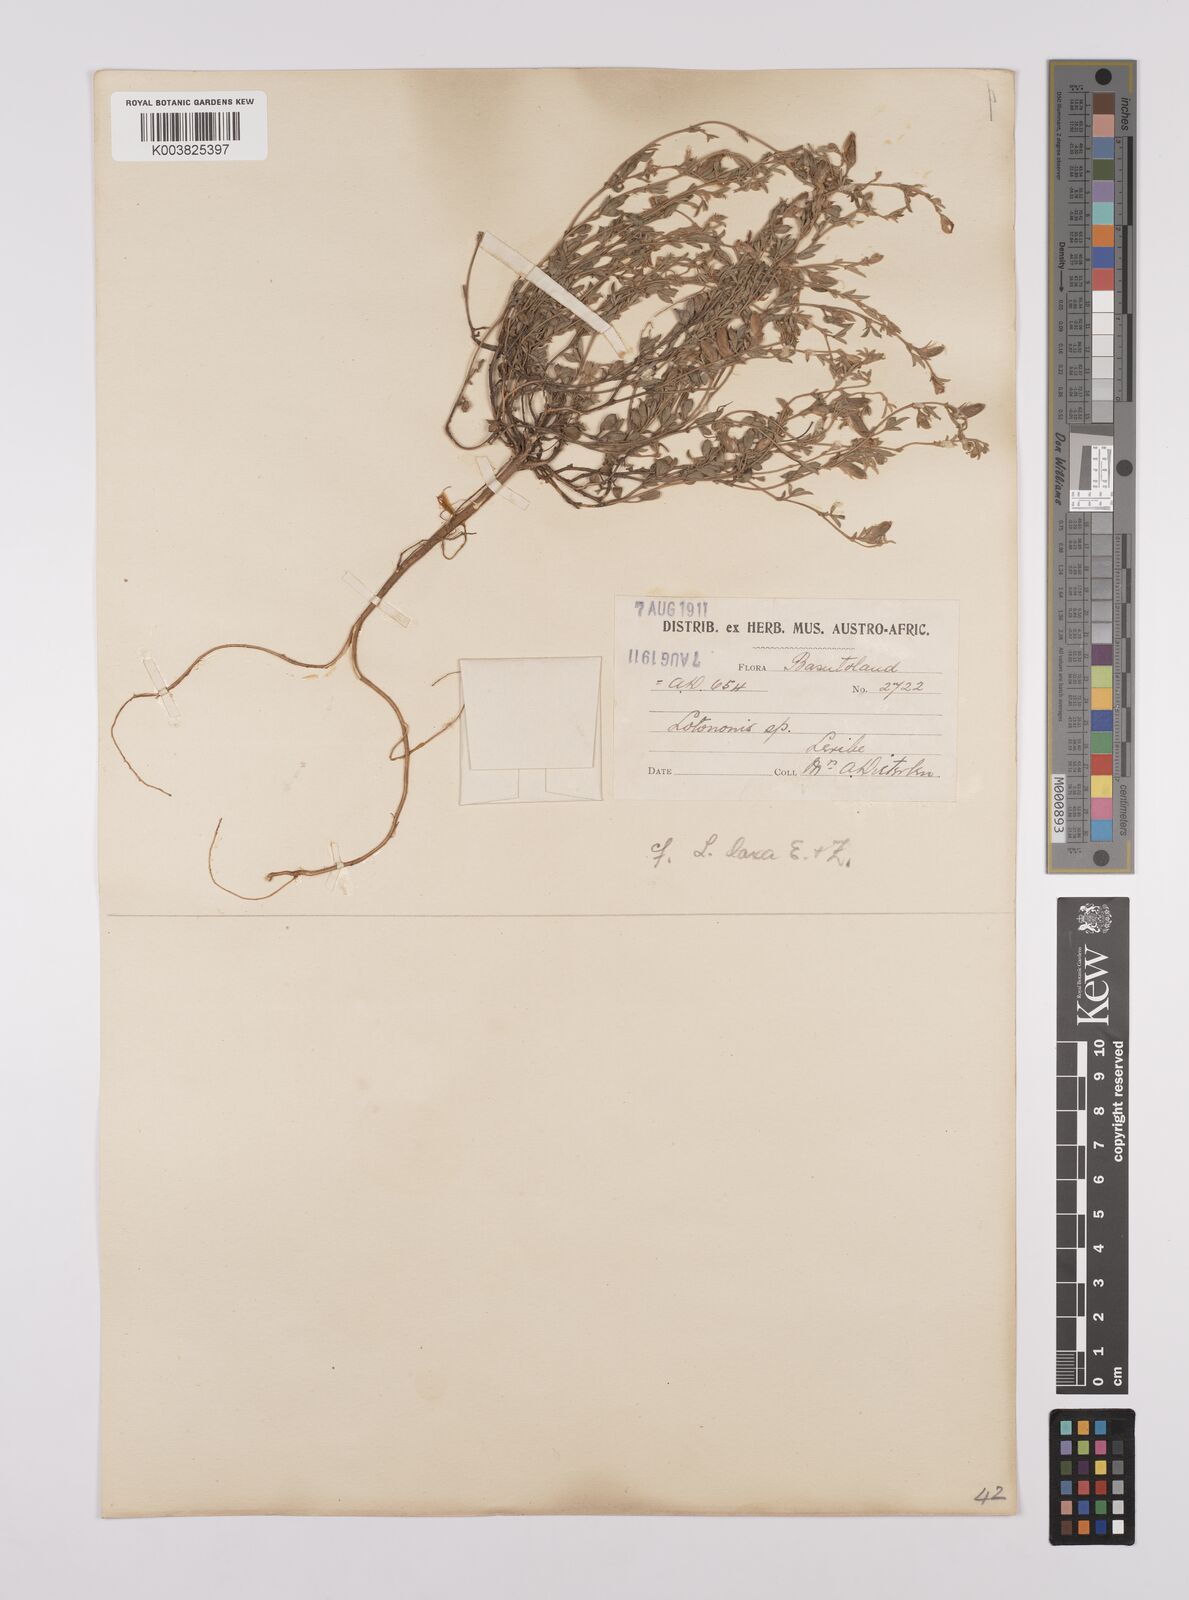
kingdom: Plantae
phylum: Tracheophyta
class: Magnoliopsida
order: Fabales
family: Fabaceae
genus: Lotononis
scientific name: Lotononis laxa
